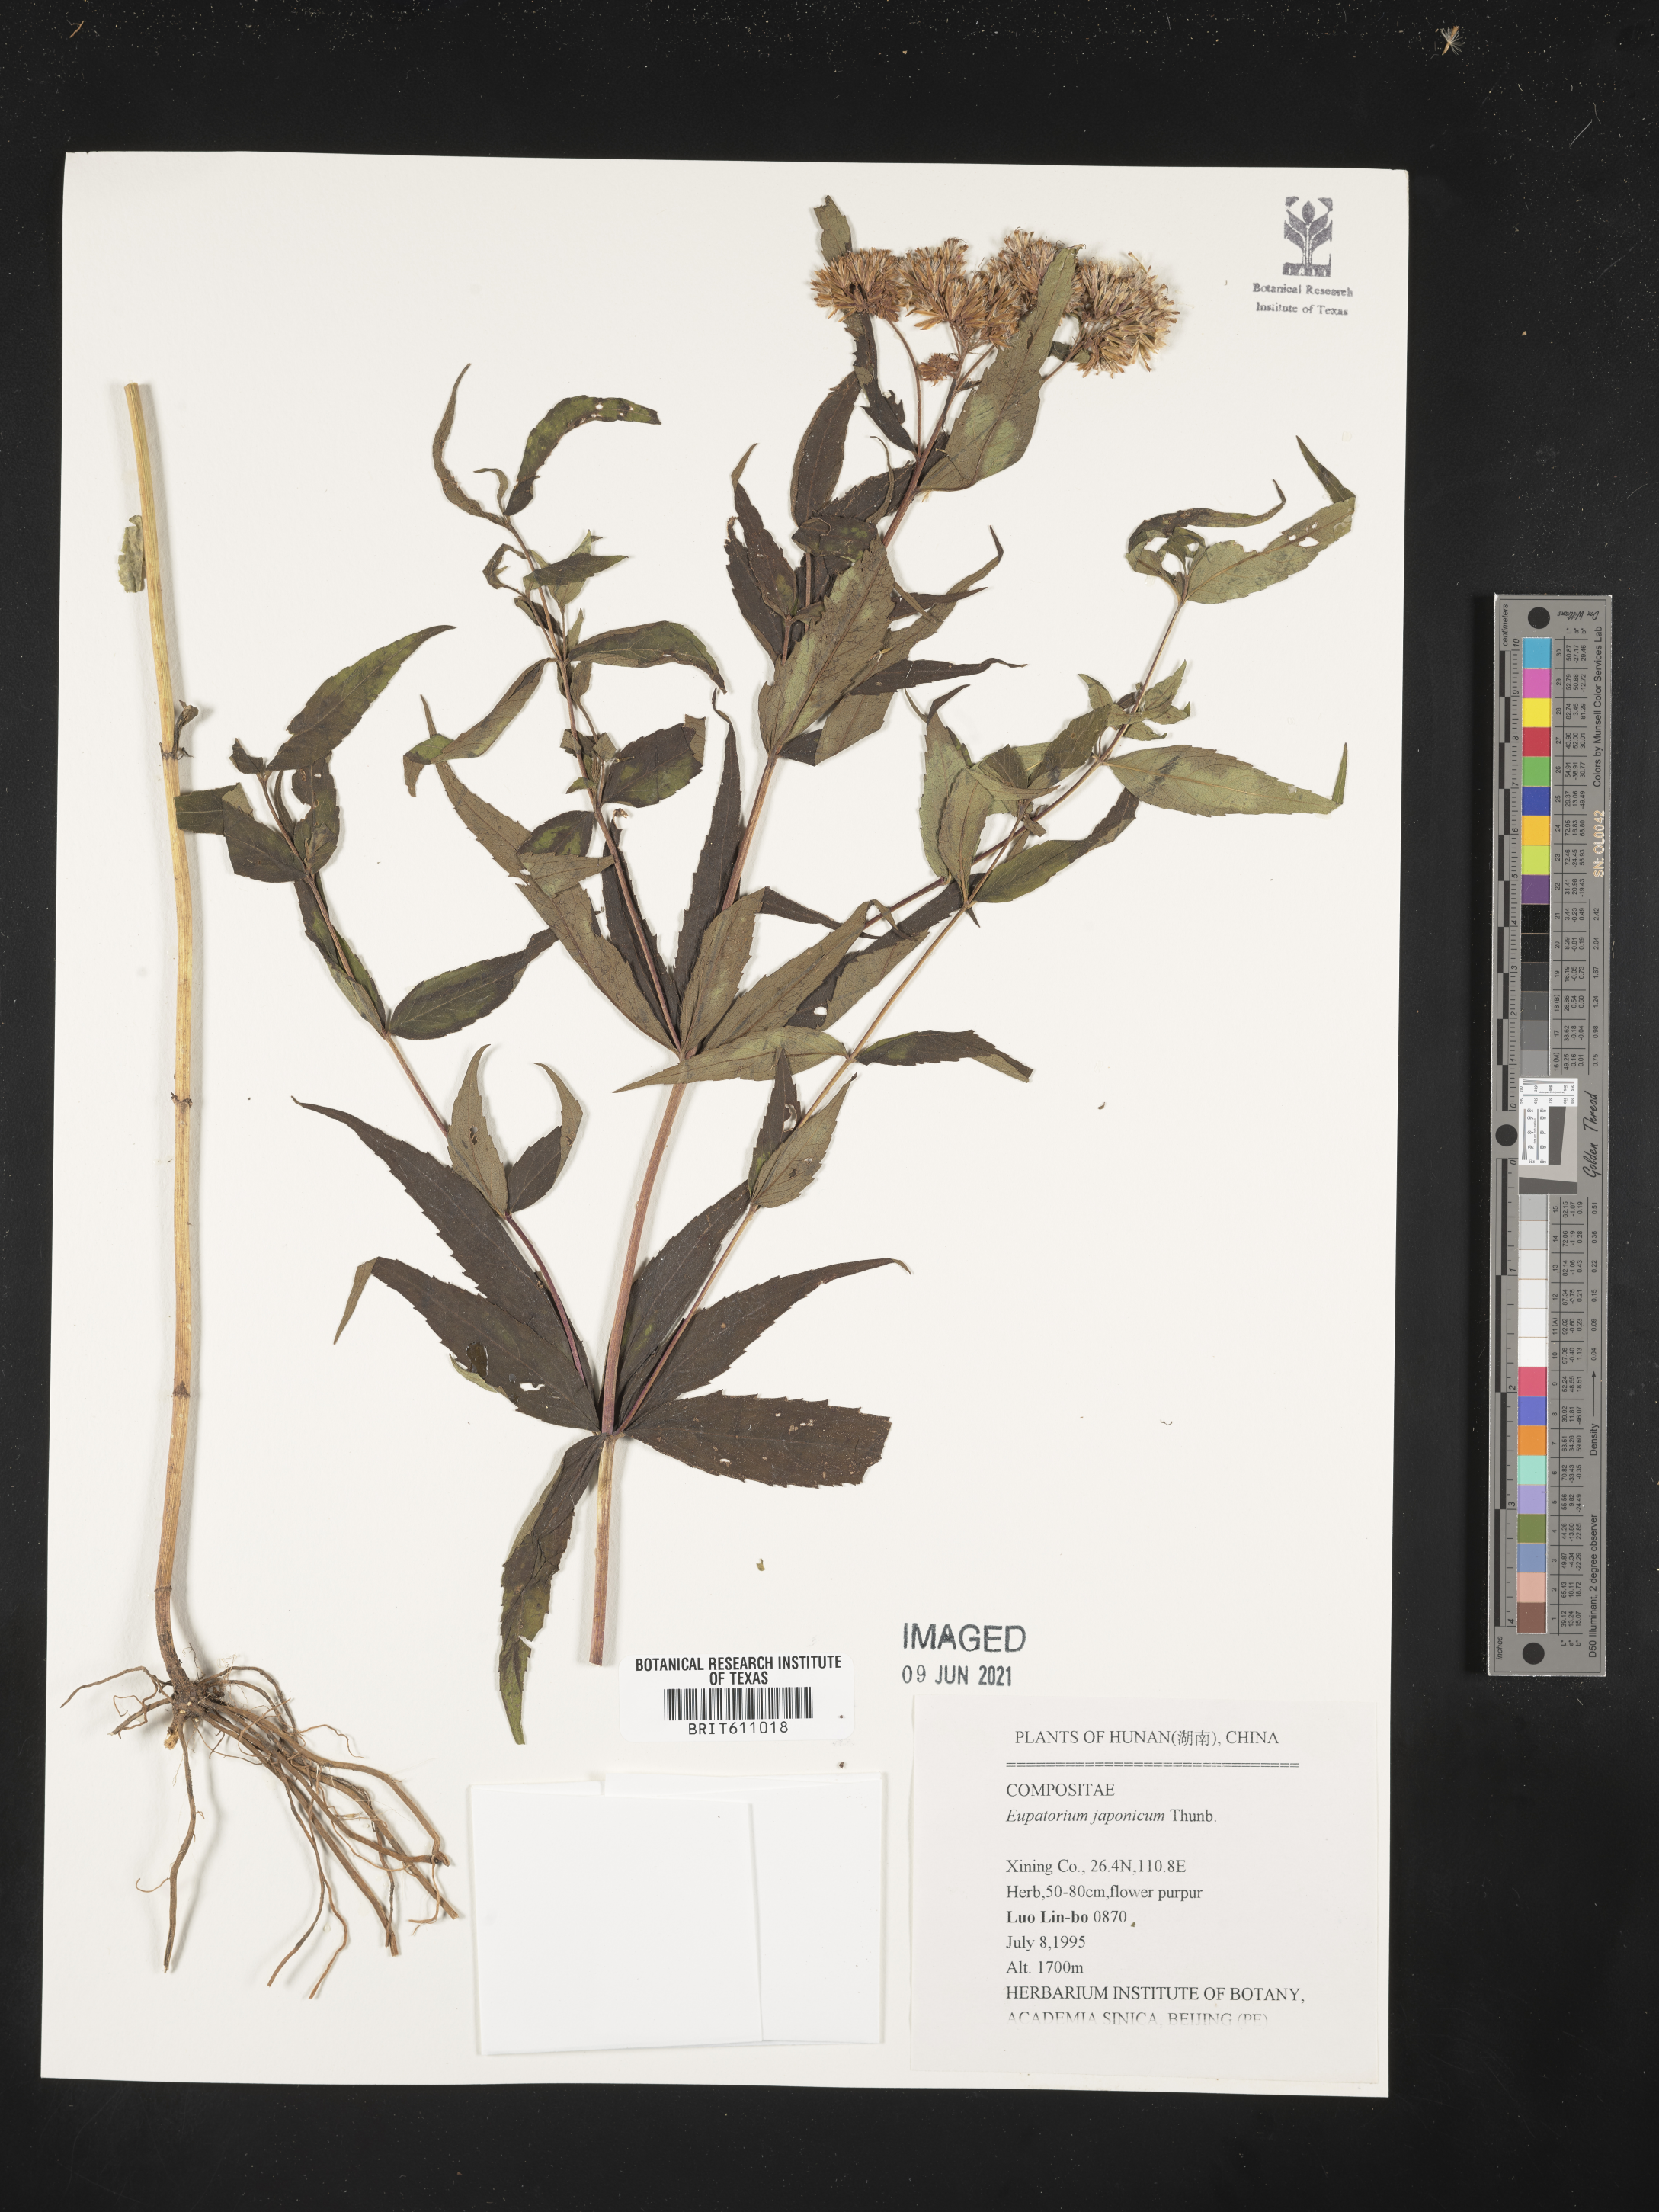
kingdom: Plantae
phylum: Tracheophyta
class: Magnoliopsida
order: Asterales
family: Asteraceae
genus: Eupatorium
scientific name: Eupatorium japonicum
